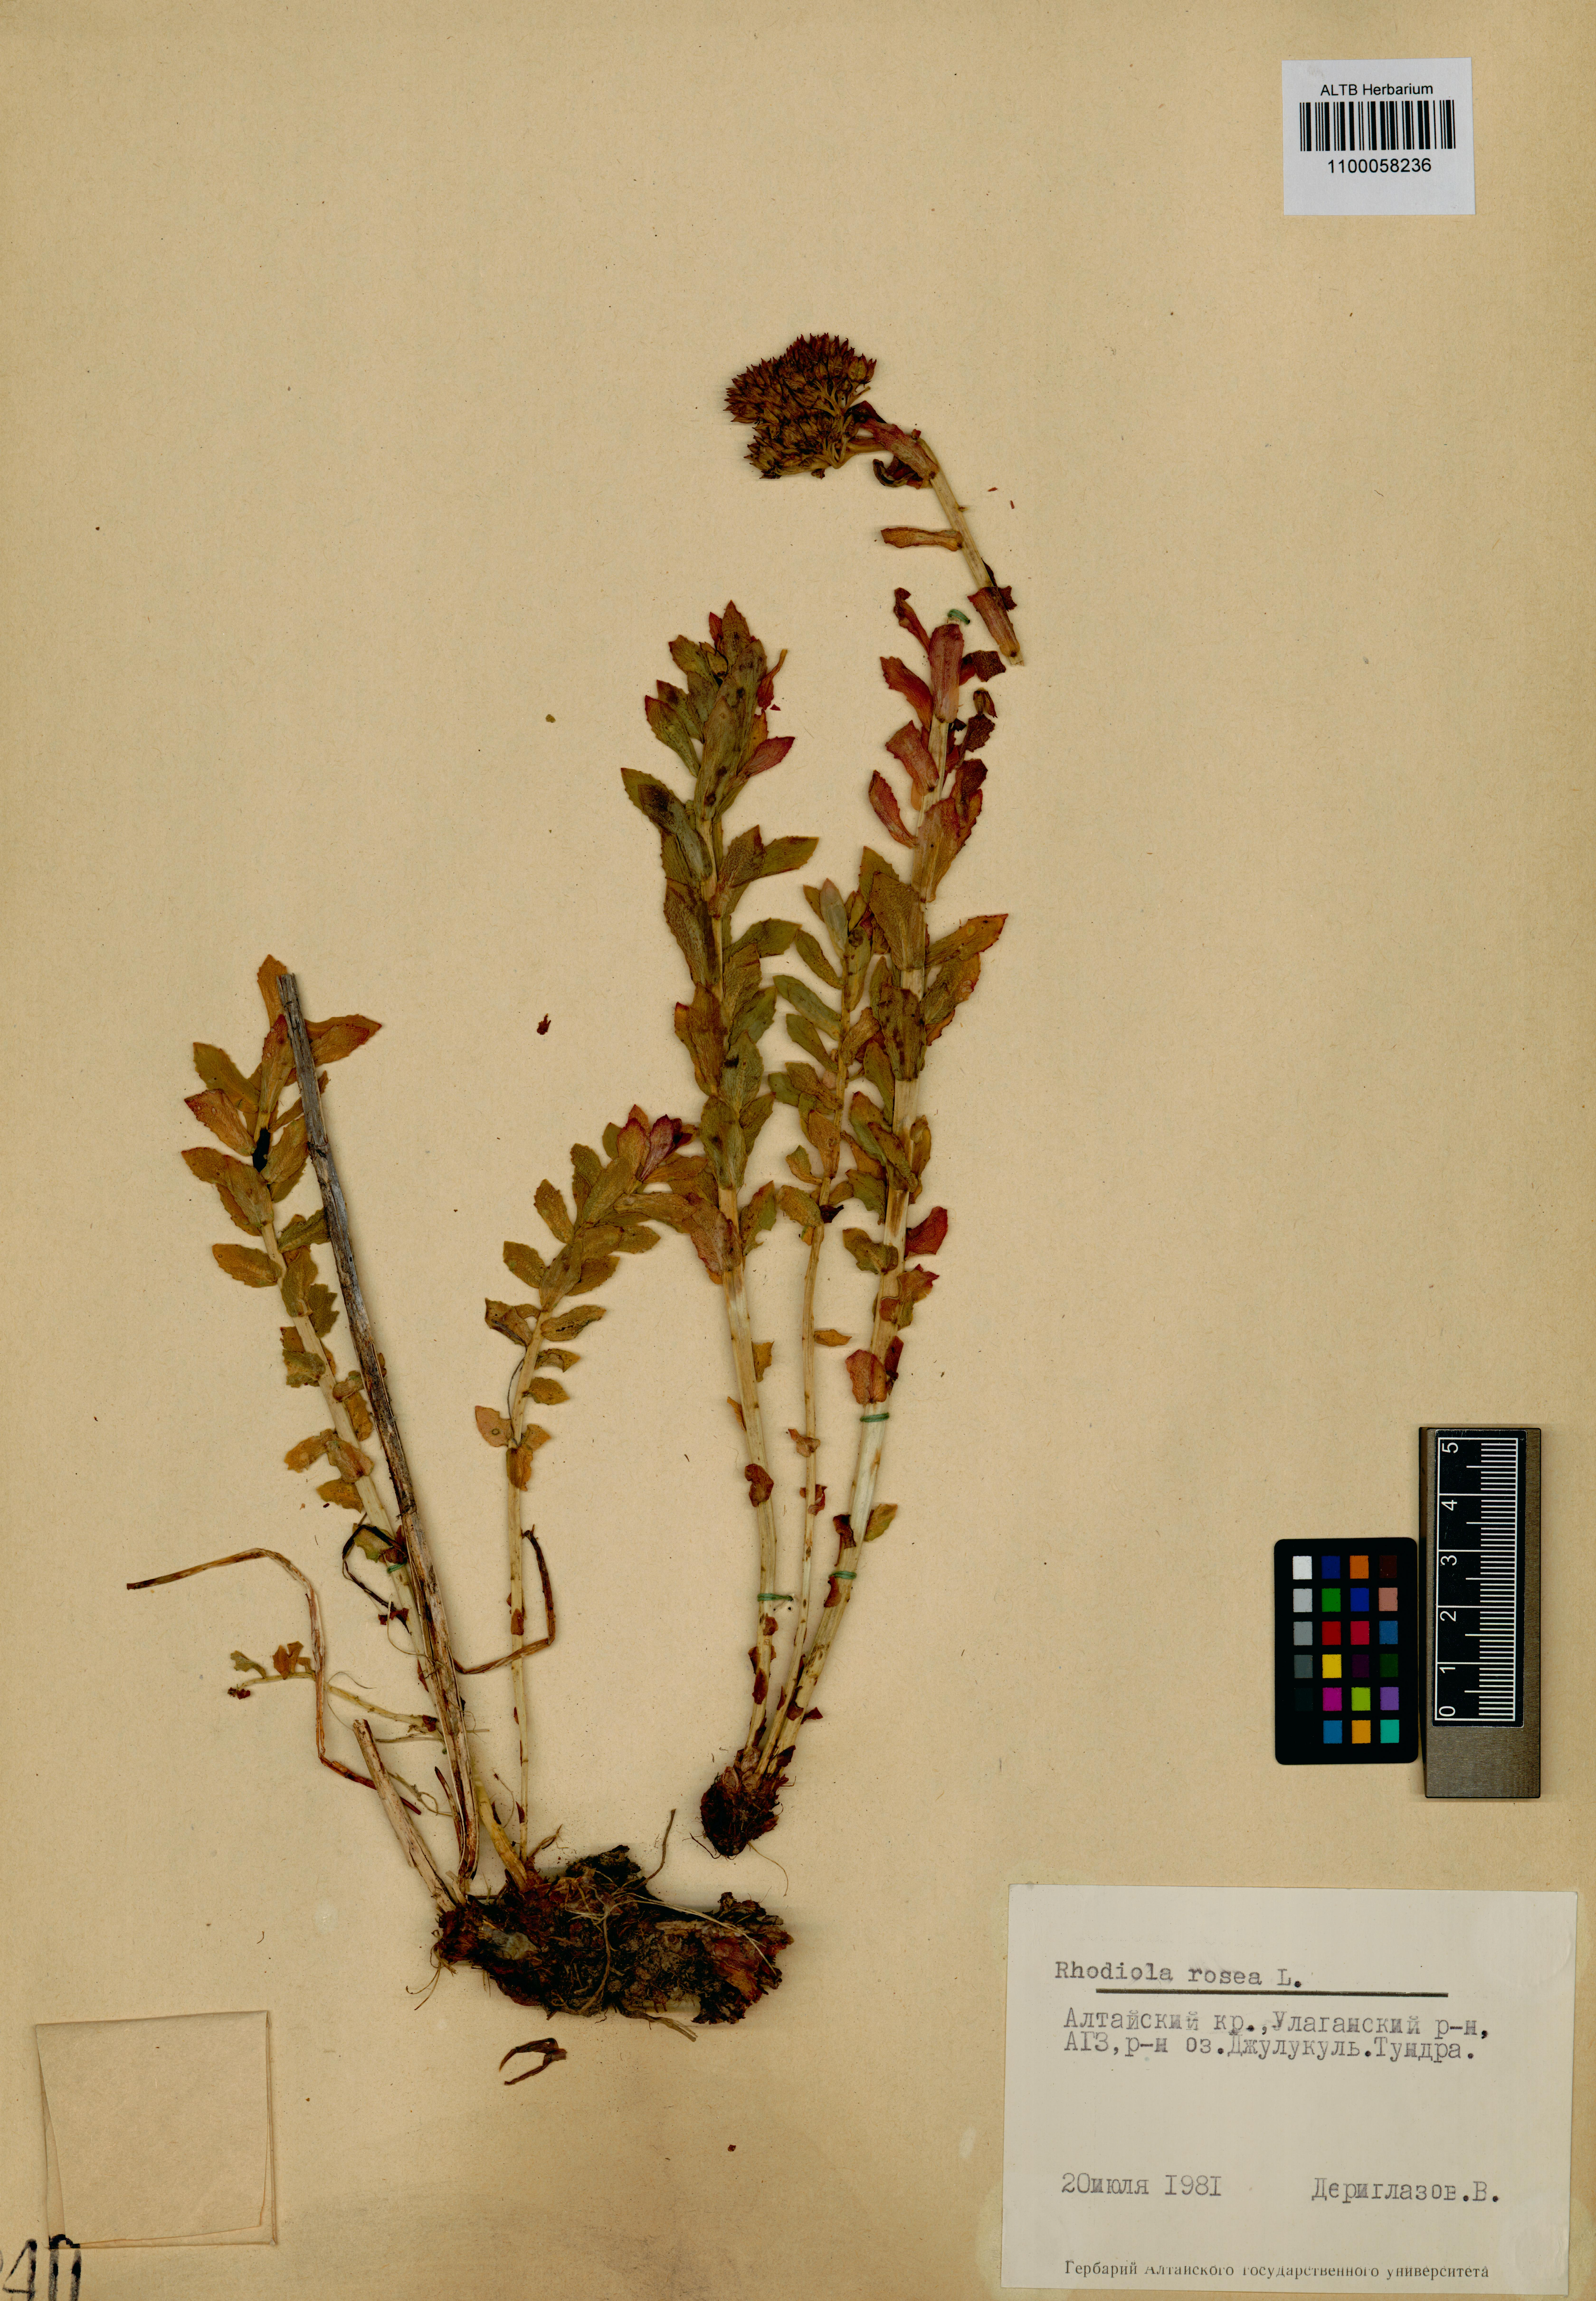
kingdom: Plantae
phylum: Tracheophyta
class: Magnoliopsida
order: Saxifragales
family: Crassulaceae
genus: Rhodiola
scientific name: Rhodiola rosea
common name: Roseroot
